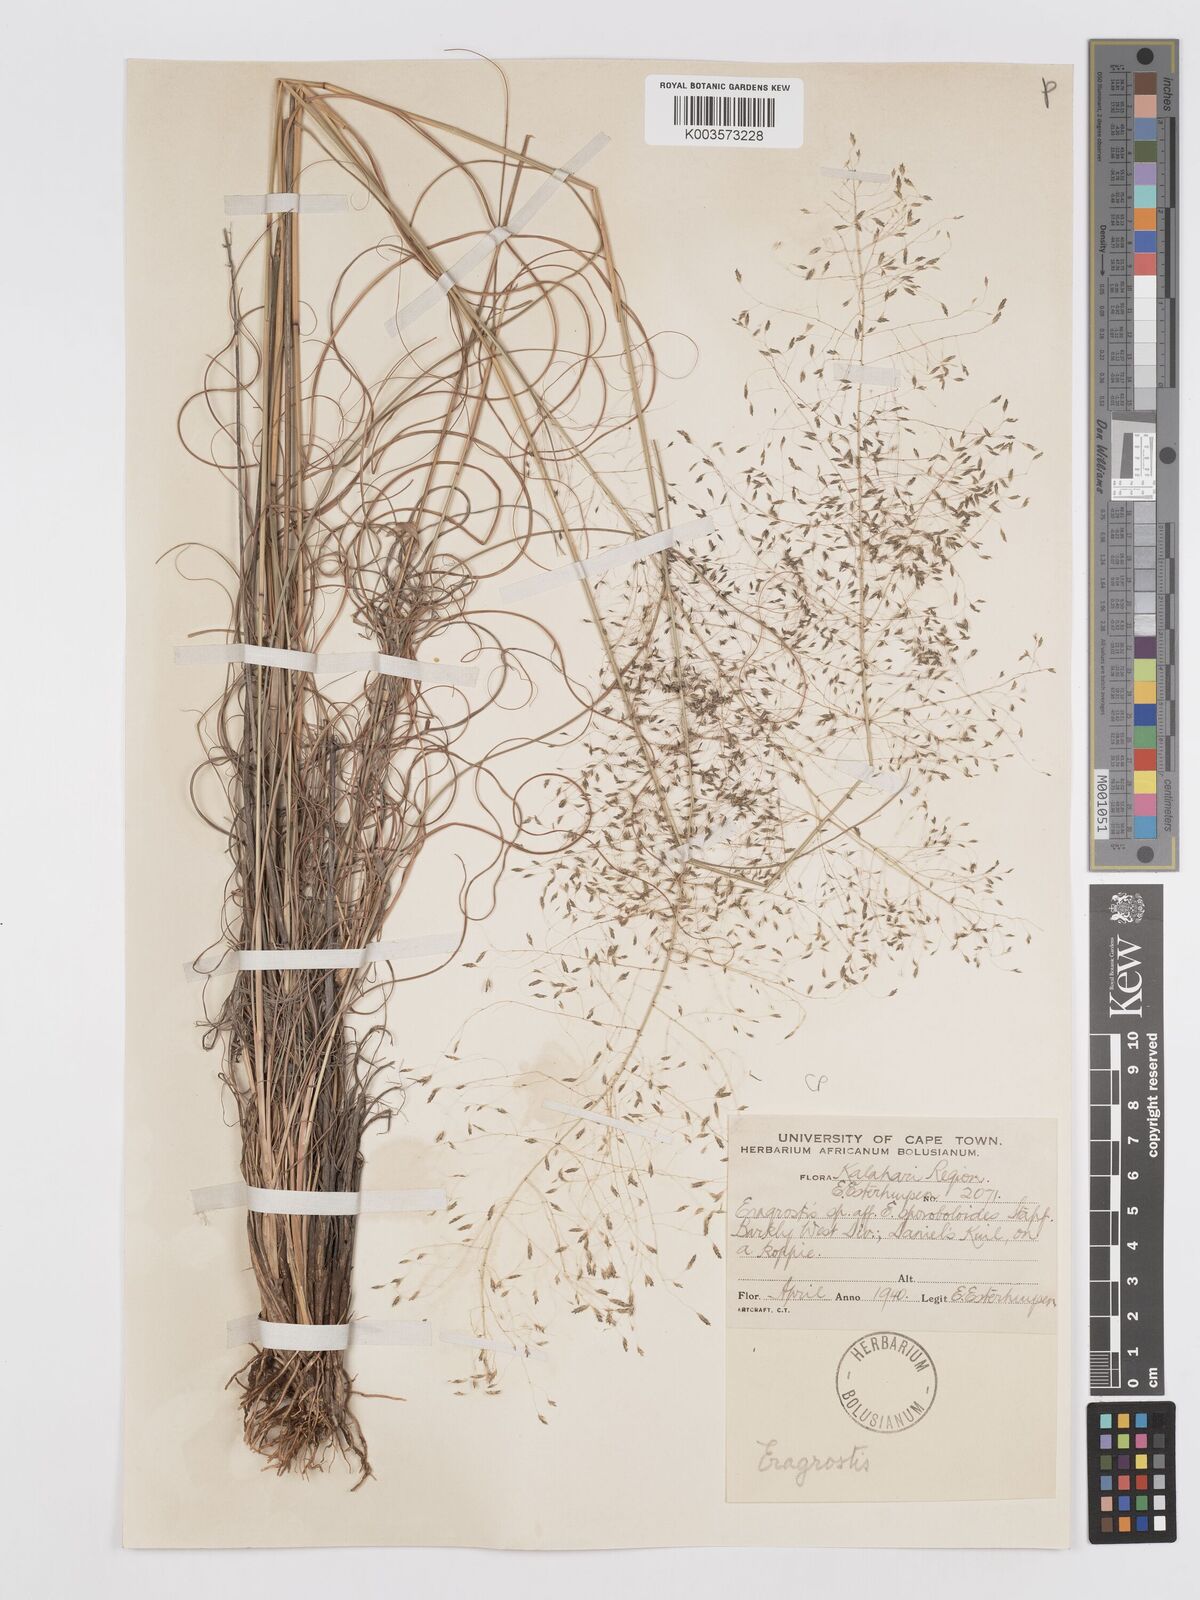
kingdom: Plantae
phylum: Tracheophyta
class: Liliopsida
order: Poales
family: Poaceae
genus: Eragrostis
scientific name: Eragrostis curvula
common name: African love-grass
